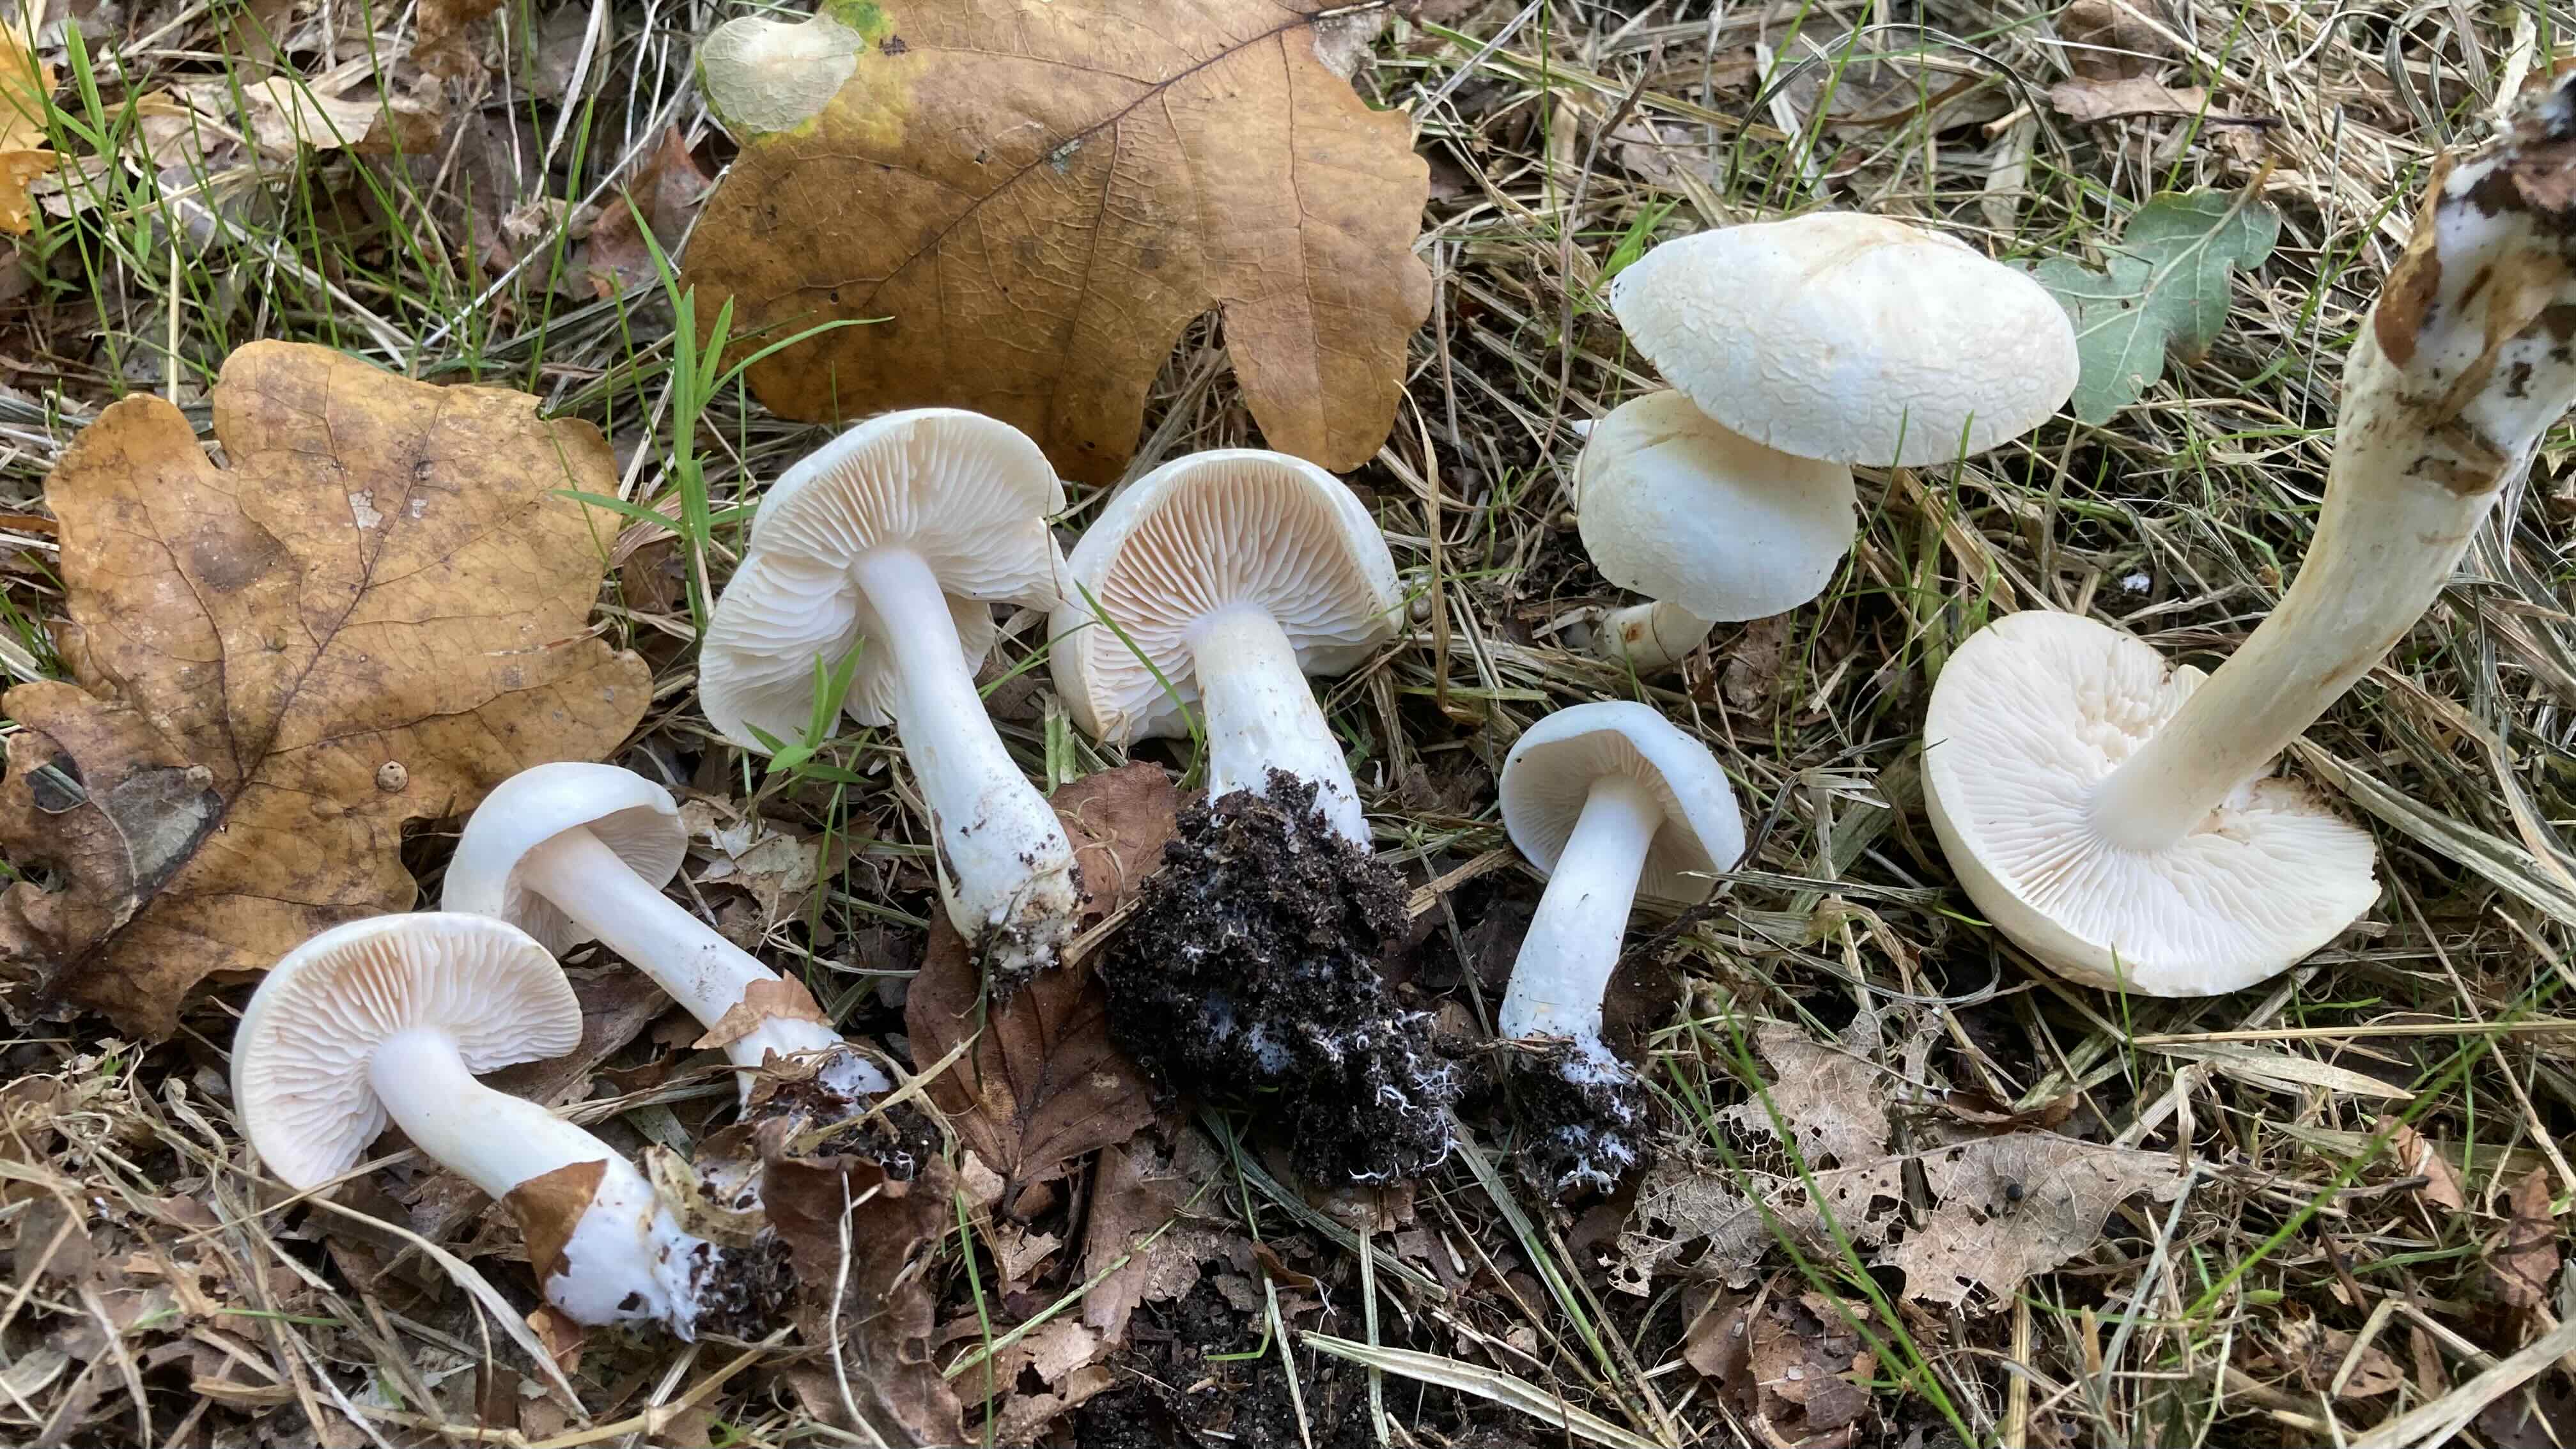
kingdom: Fungi
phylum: Basidiomycota
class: Agaricomycetes
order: Agaricales
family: Tricholomataceae
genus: Tricholoma
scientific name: Tricholoma album
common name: honning-ridderhat
